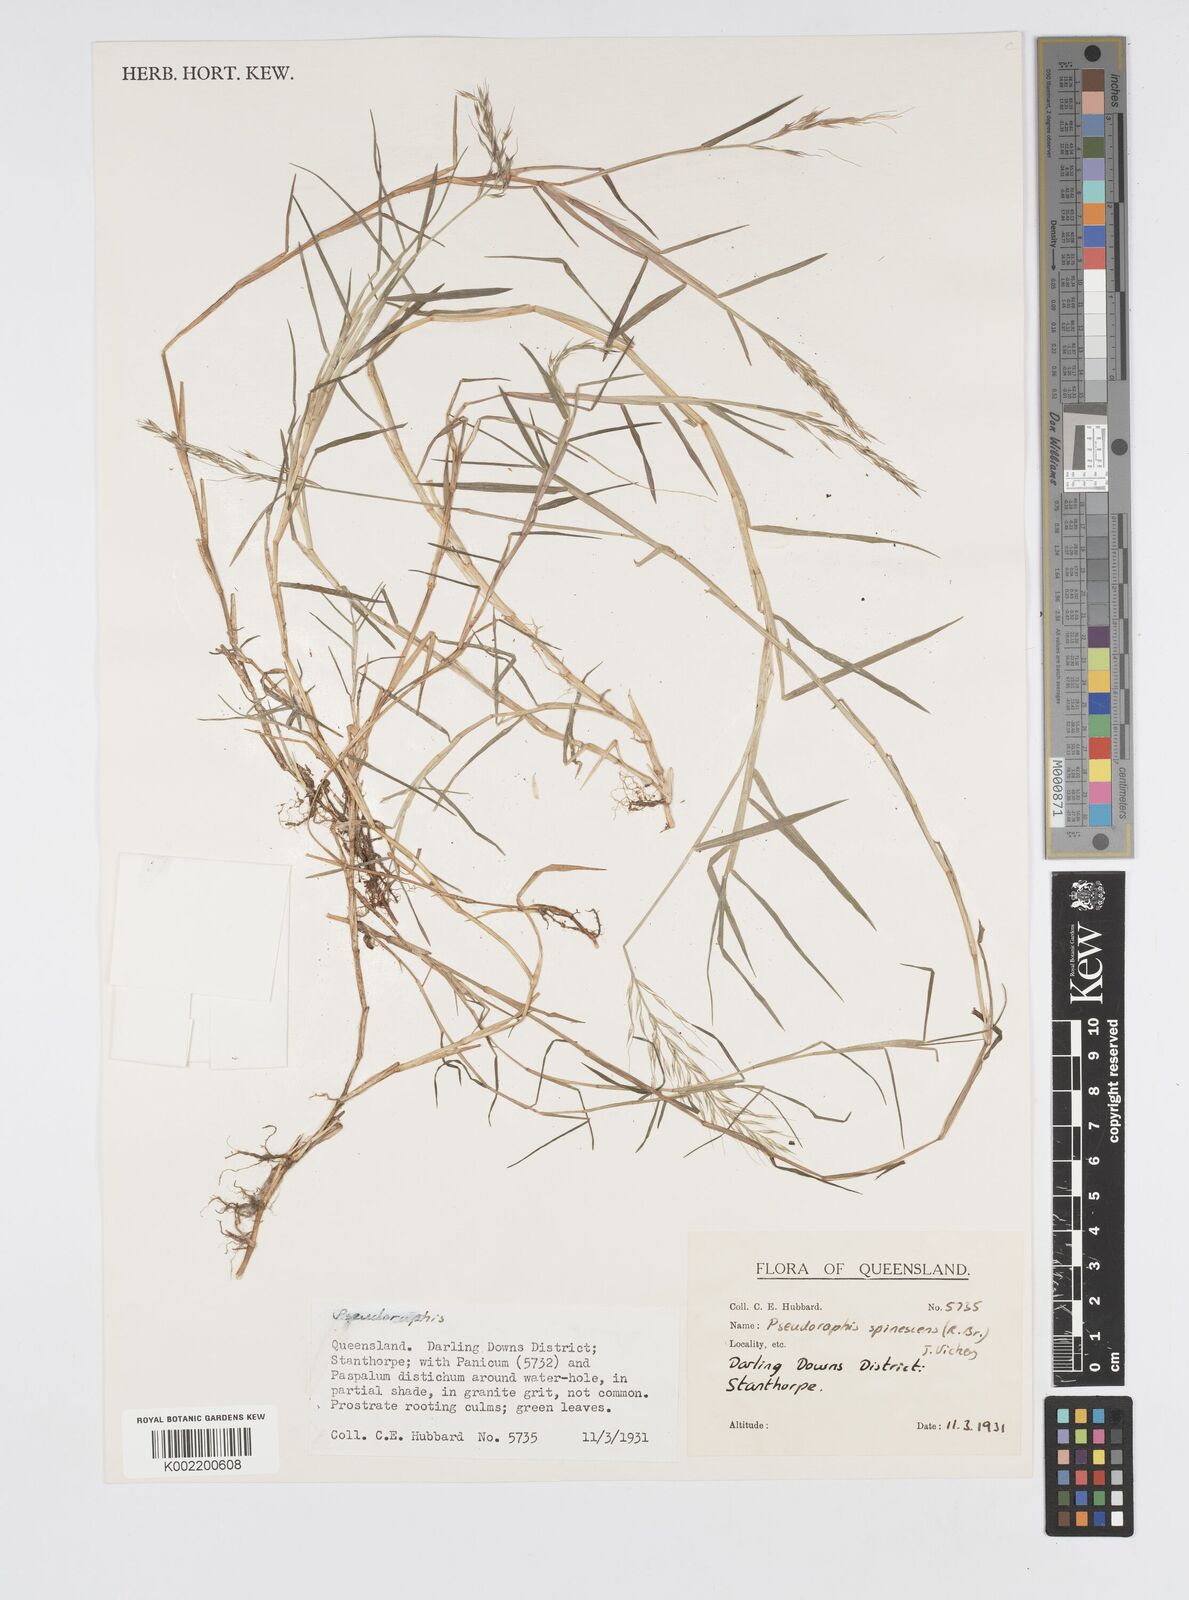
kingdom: Plantae
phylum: Tracheophyta
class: Liliopsida
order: Poales
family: Poaceae
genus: Pseudoraphis
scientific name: Pseudoraphis
